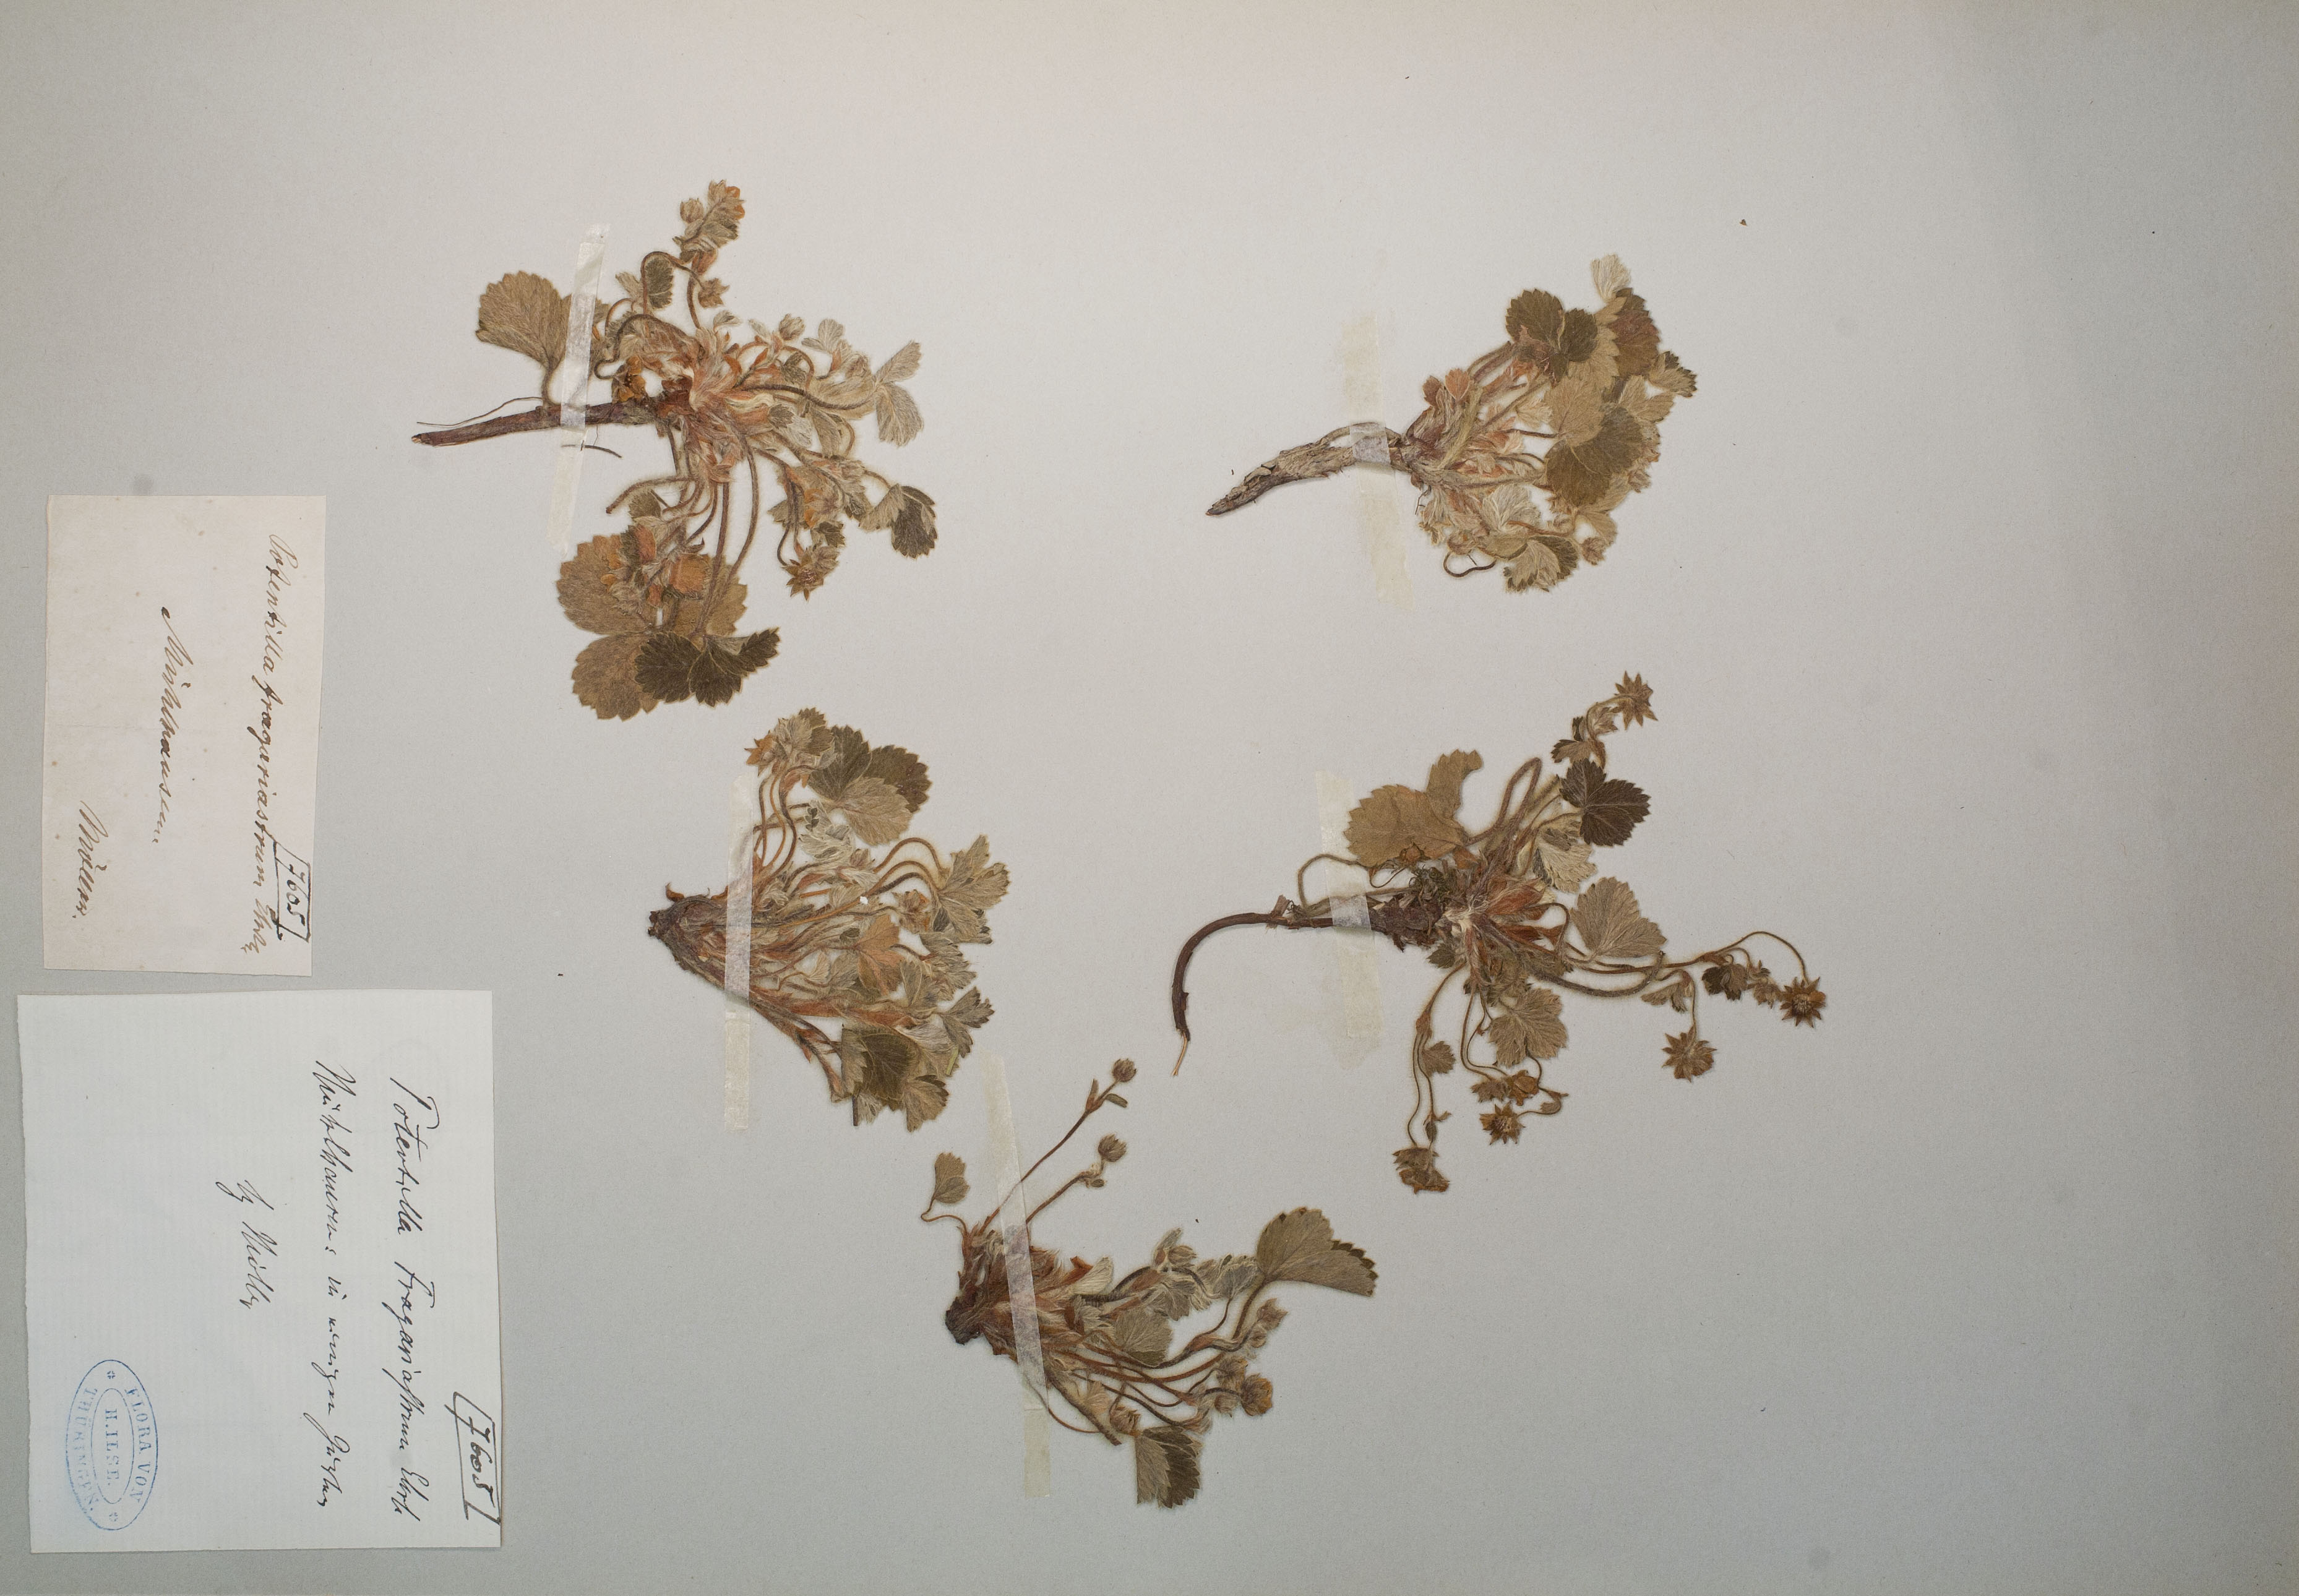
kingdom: Plantae
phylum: Tracheophyta
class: Magnoliopsida
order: Rosales
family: Rosaceae
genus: Potentilla
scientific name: Potentilla sterilis
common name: Barren strawberry
